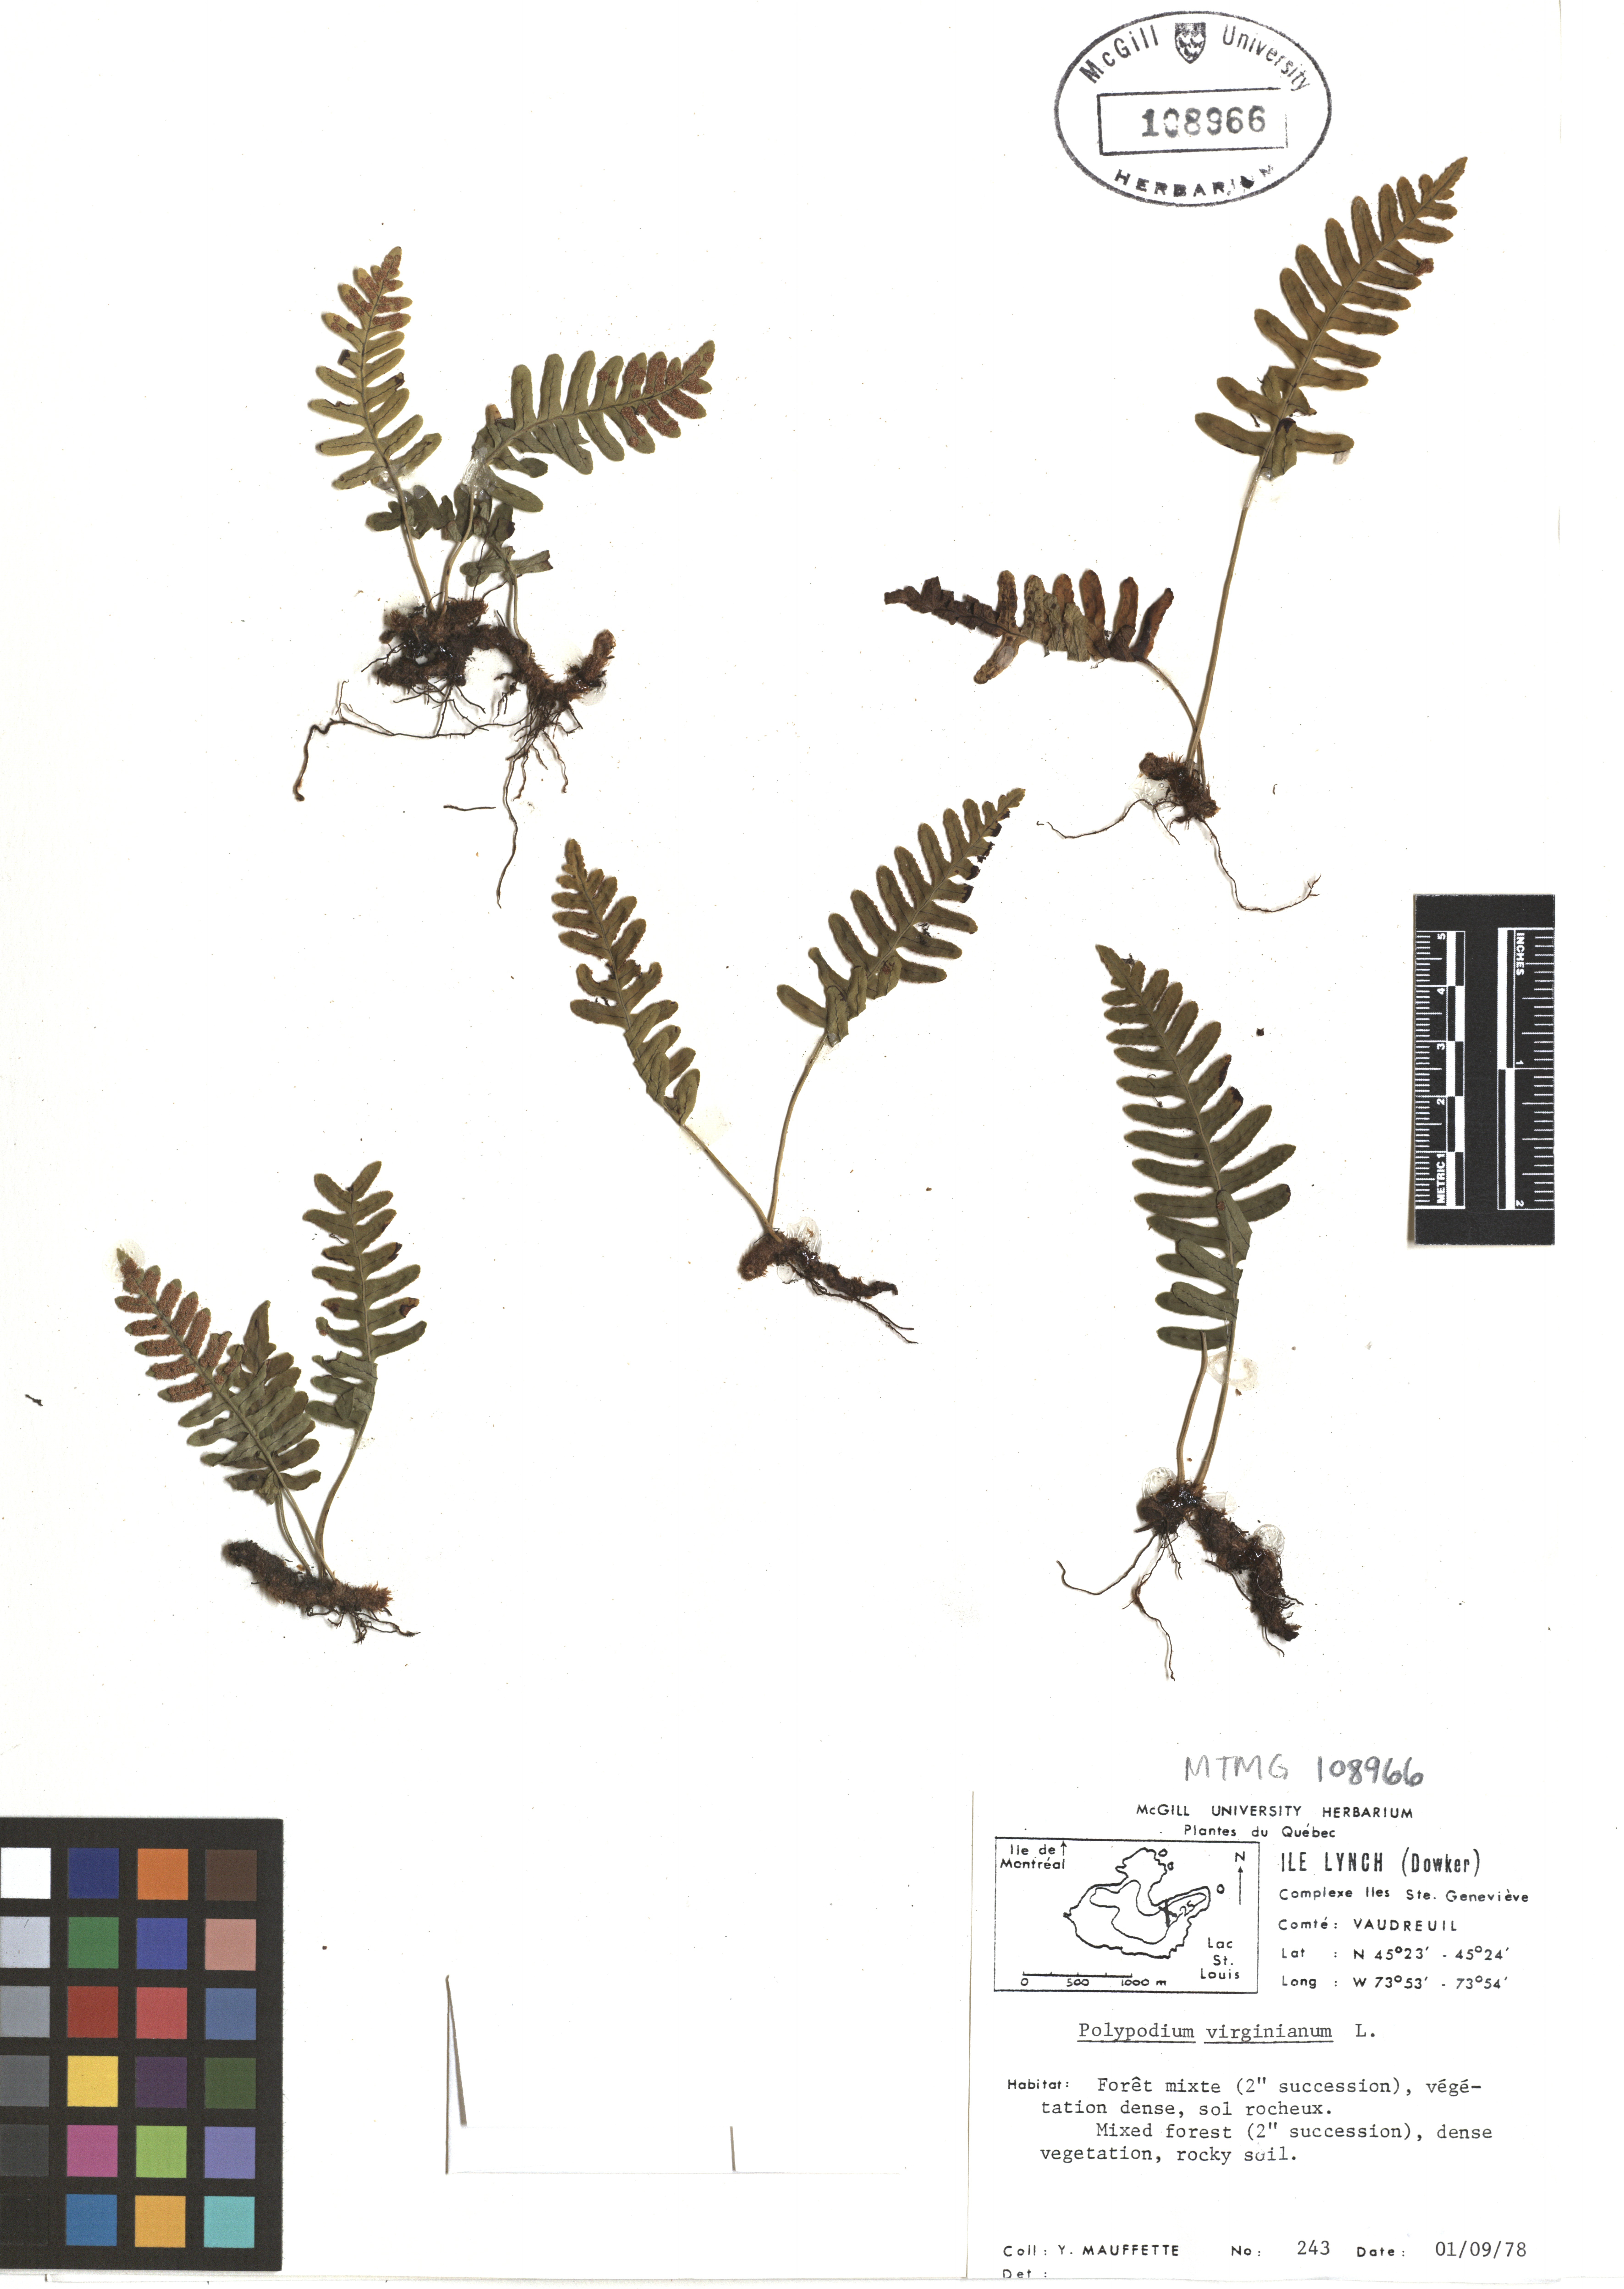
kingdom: Plantae
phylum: Tracheophyta
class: Polypodiopsida
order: Polypodiales
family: Polypodiaceae
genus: Polypodium
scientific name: Polypodium virginianum
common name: American wall fern
